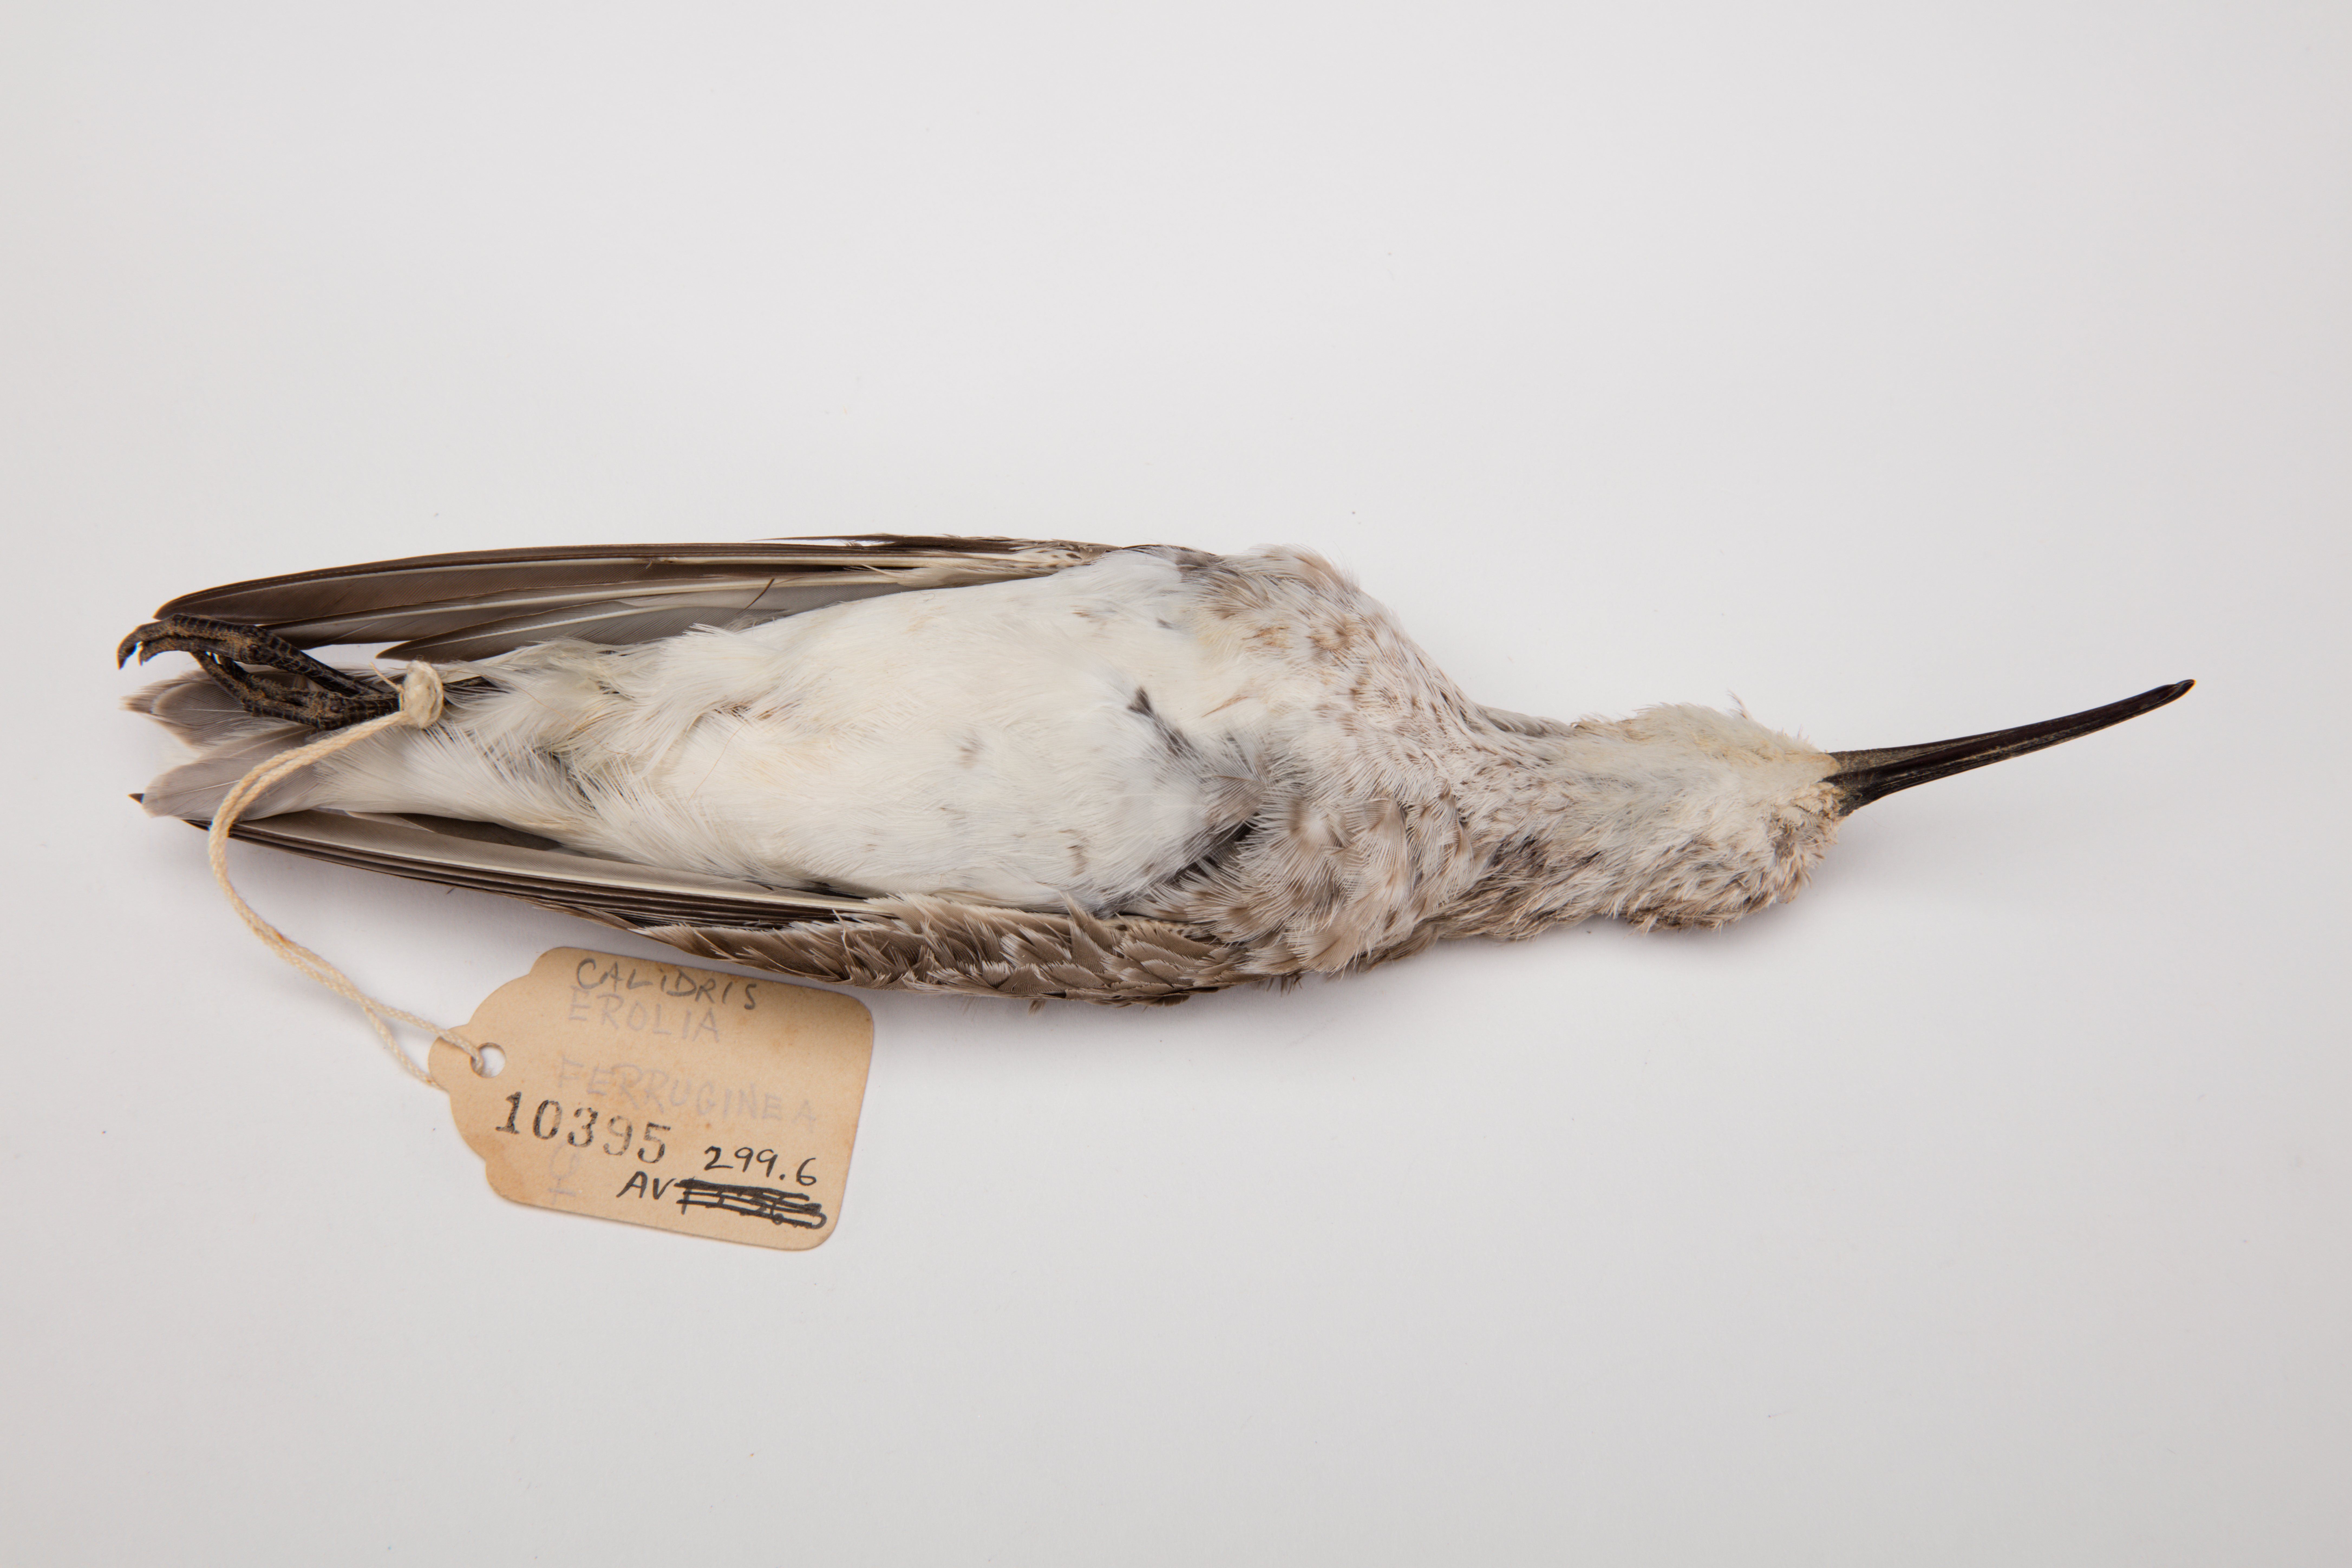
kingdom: Animalia
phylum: Chordata
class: Aves
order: Charadriiformes
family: Scolopacidae
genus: Calidris
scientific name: Calidris ferruginea
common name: Curlew sandpiper
